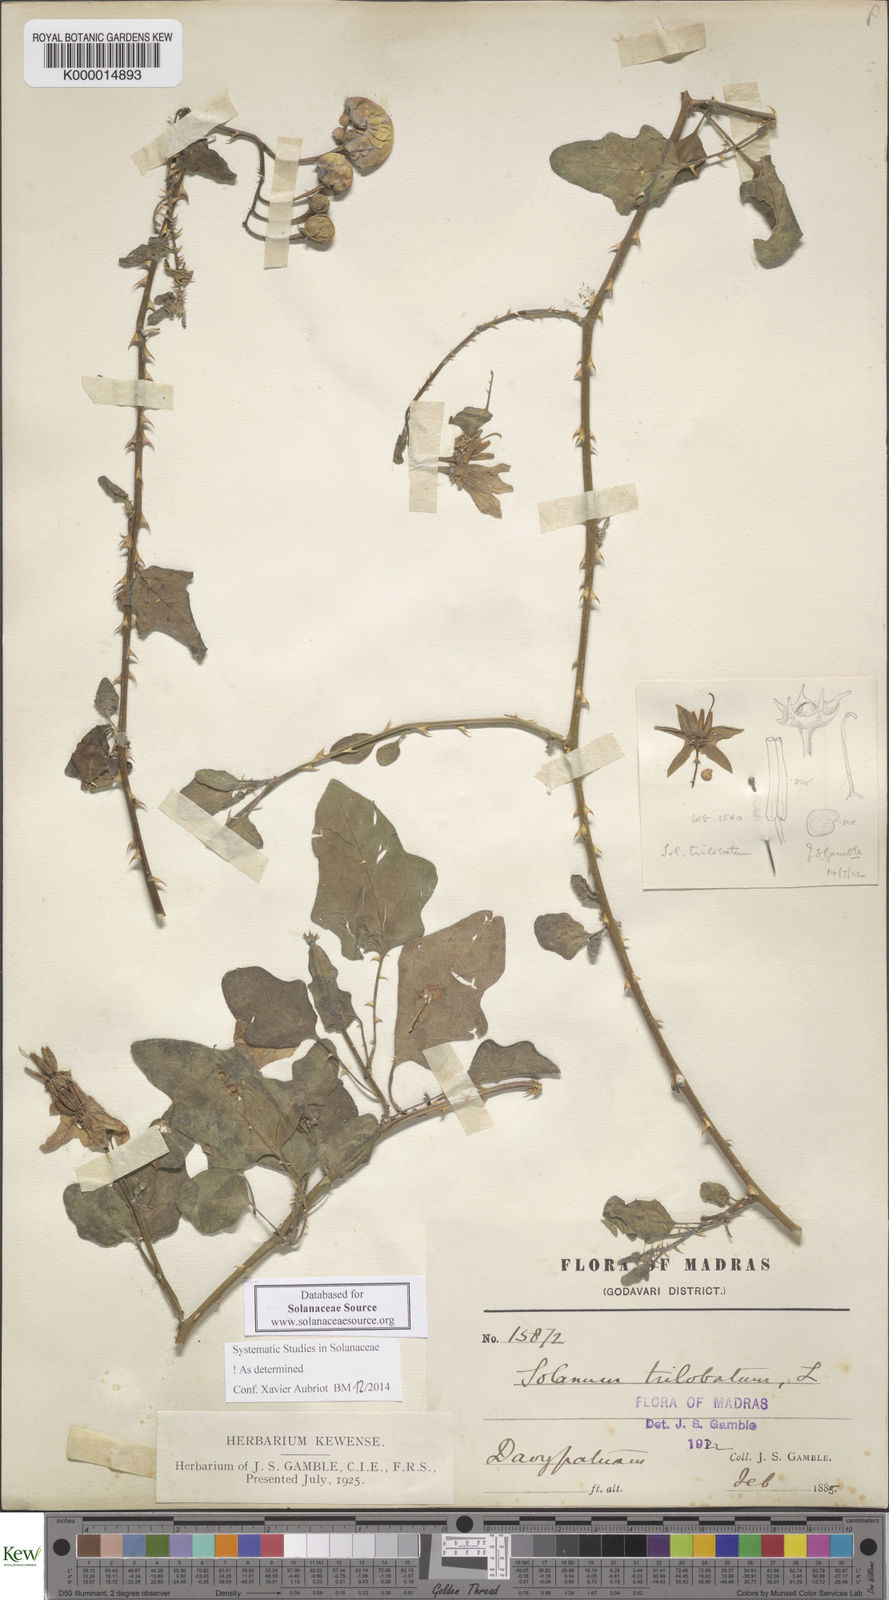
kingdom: Plantae
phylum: Tracheophyta
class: Magnoliopsida
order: Solanales
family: Solanaceae
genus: Solanum
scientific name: Solanum trilobatum
